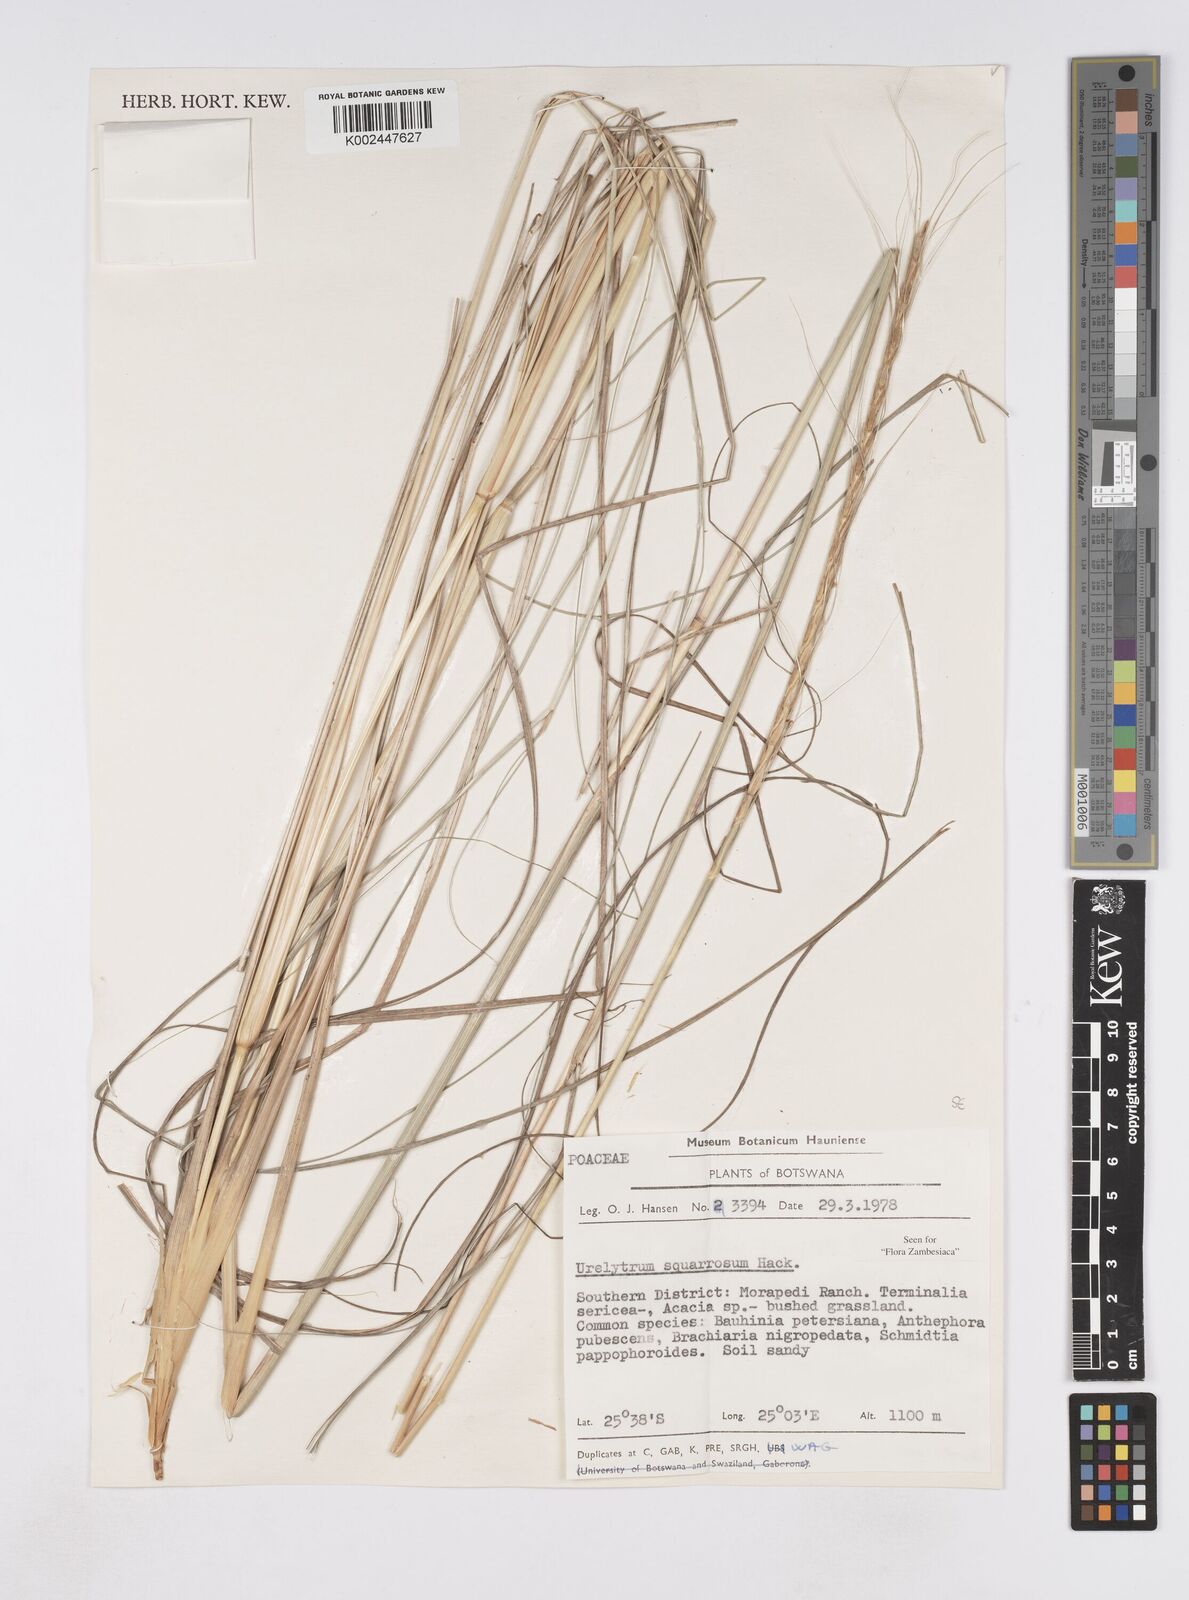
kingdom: Plantae
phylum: Tracheophyta
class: Liliopsida
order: Poales
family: Poaceae
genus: Urelytrum
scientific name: Urelytrum agropyroides
